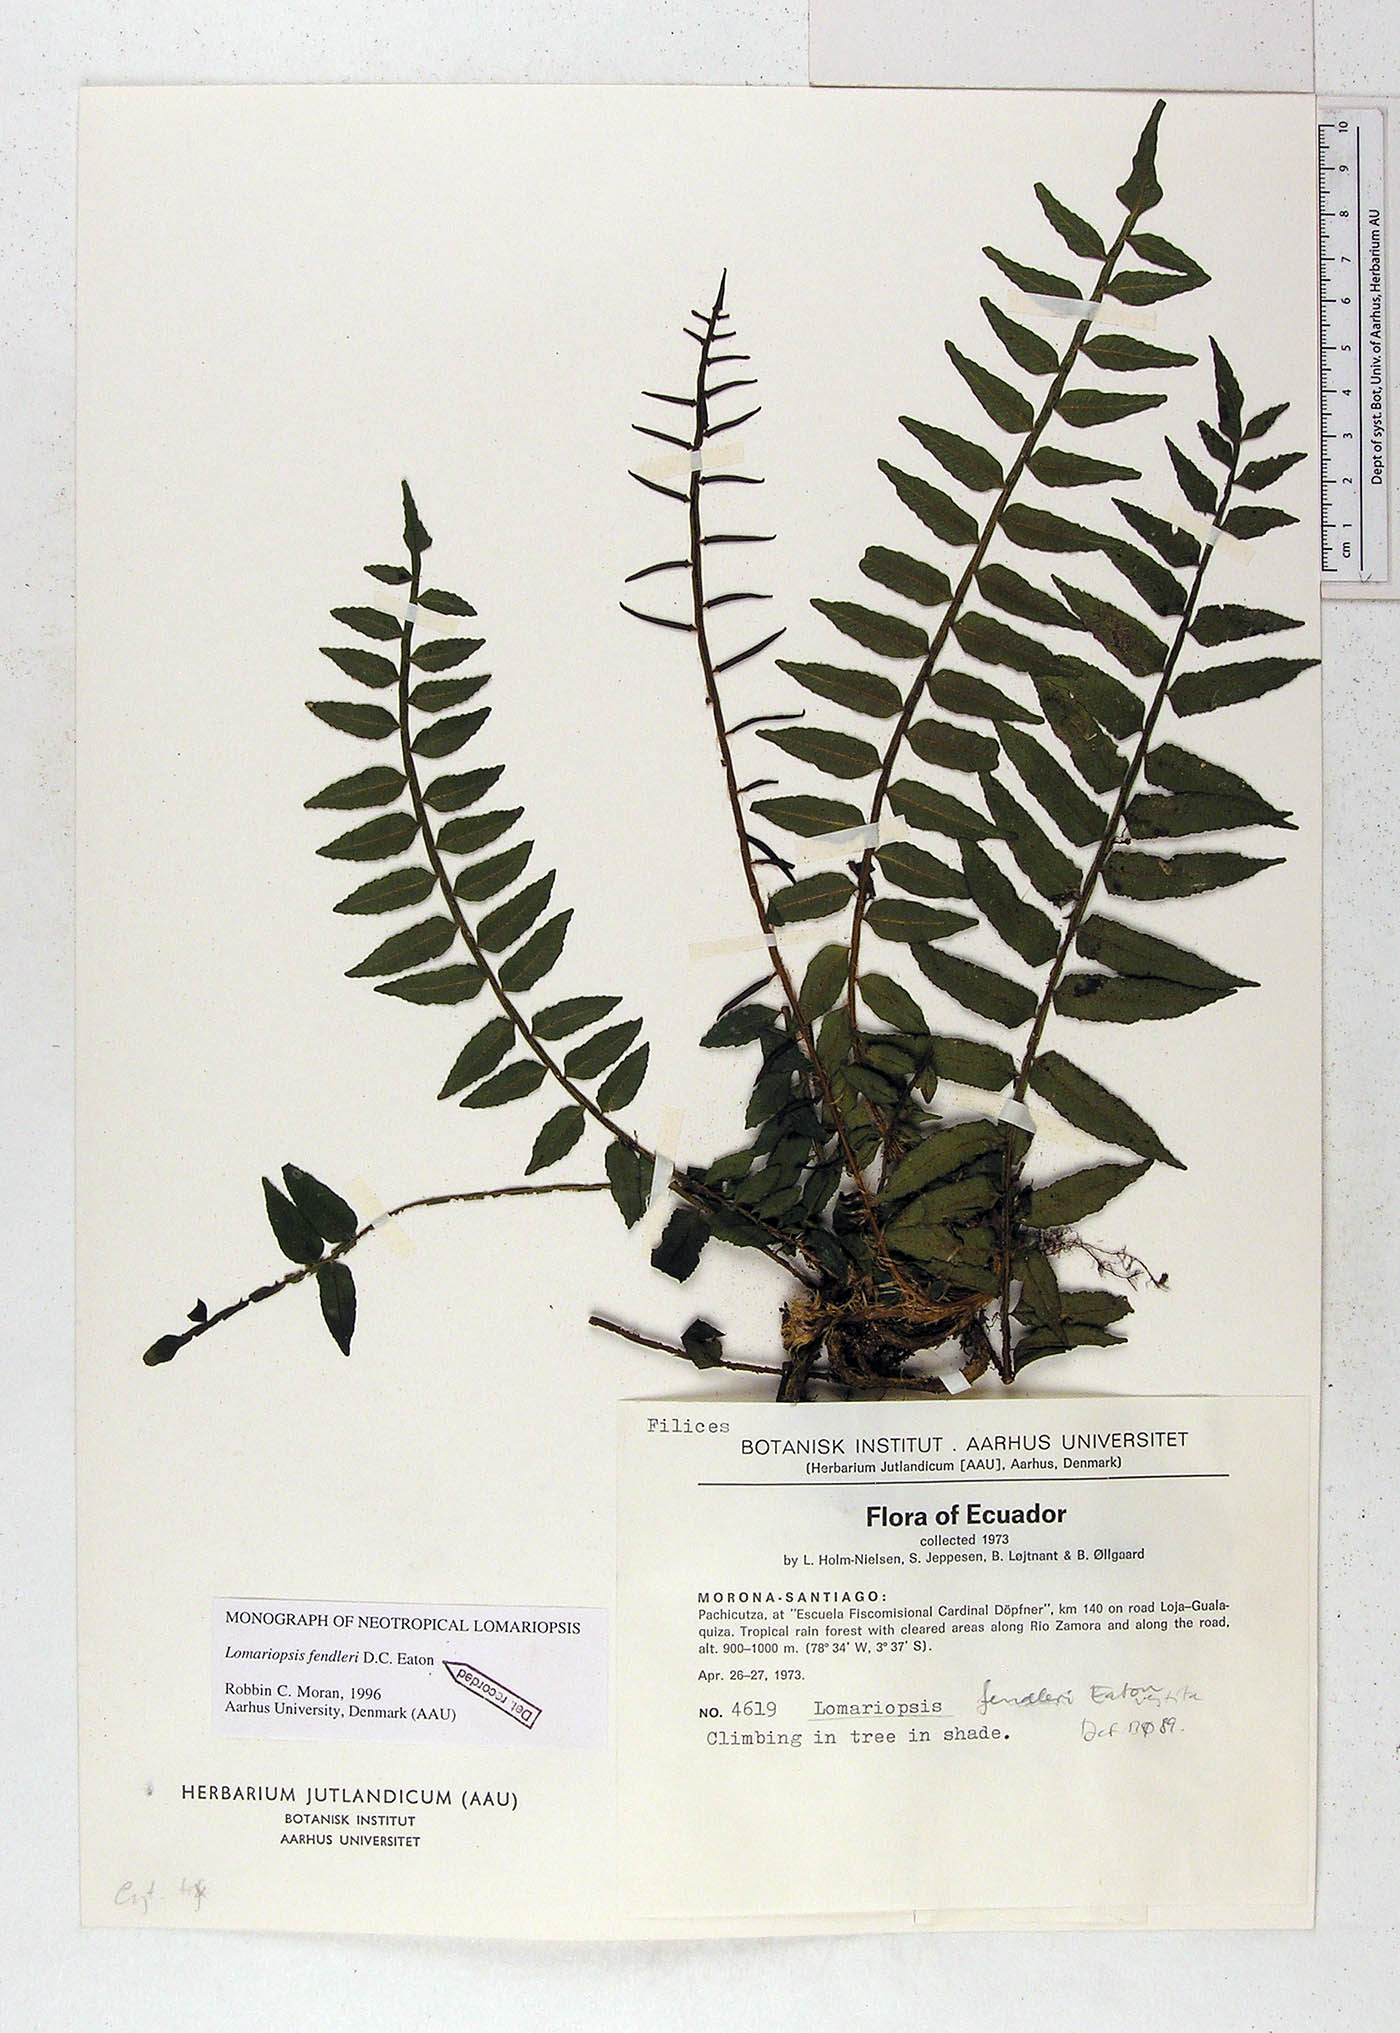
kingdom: Plantae
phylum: Tracheophyta
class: Magnoliopsida
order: Asterales
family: Asteraceae
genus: Stevia
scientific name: Stevia andina
